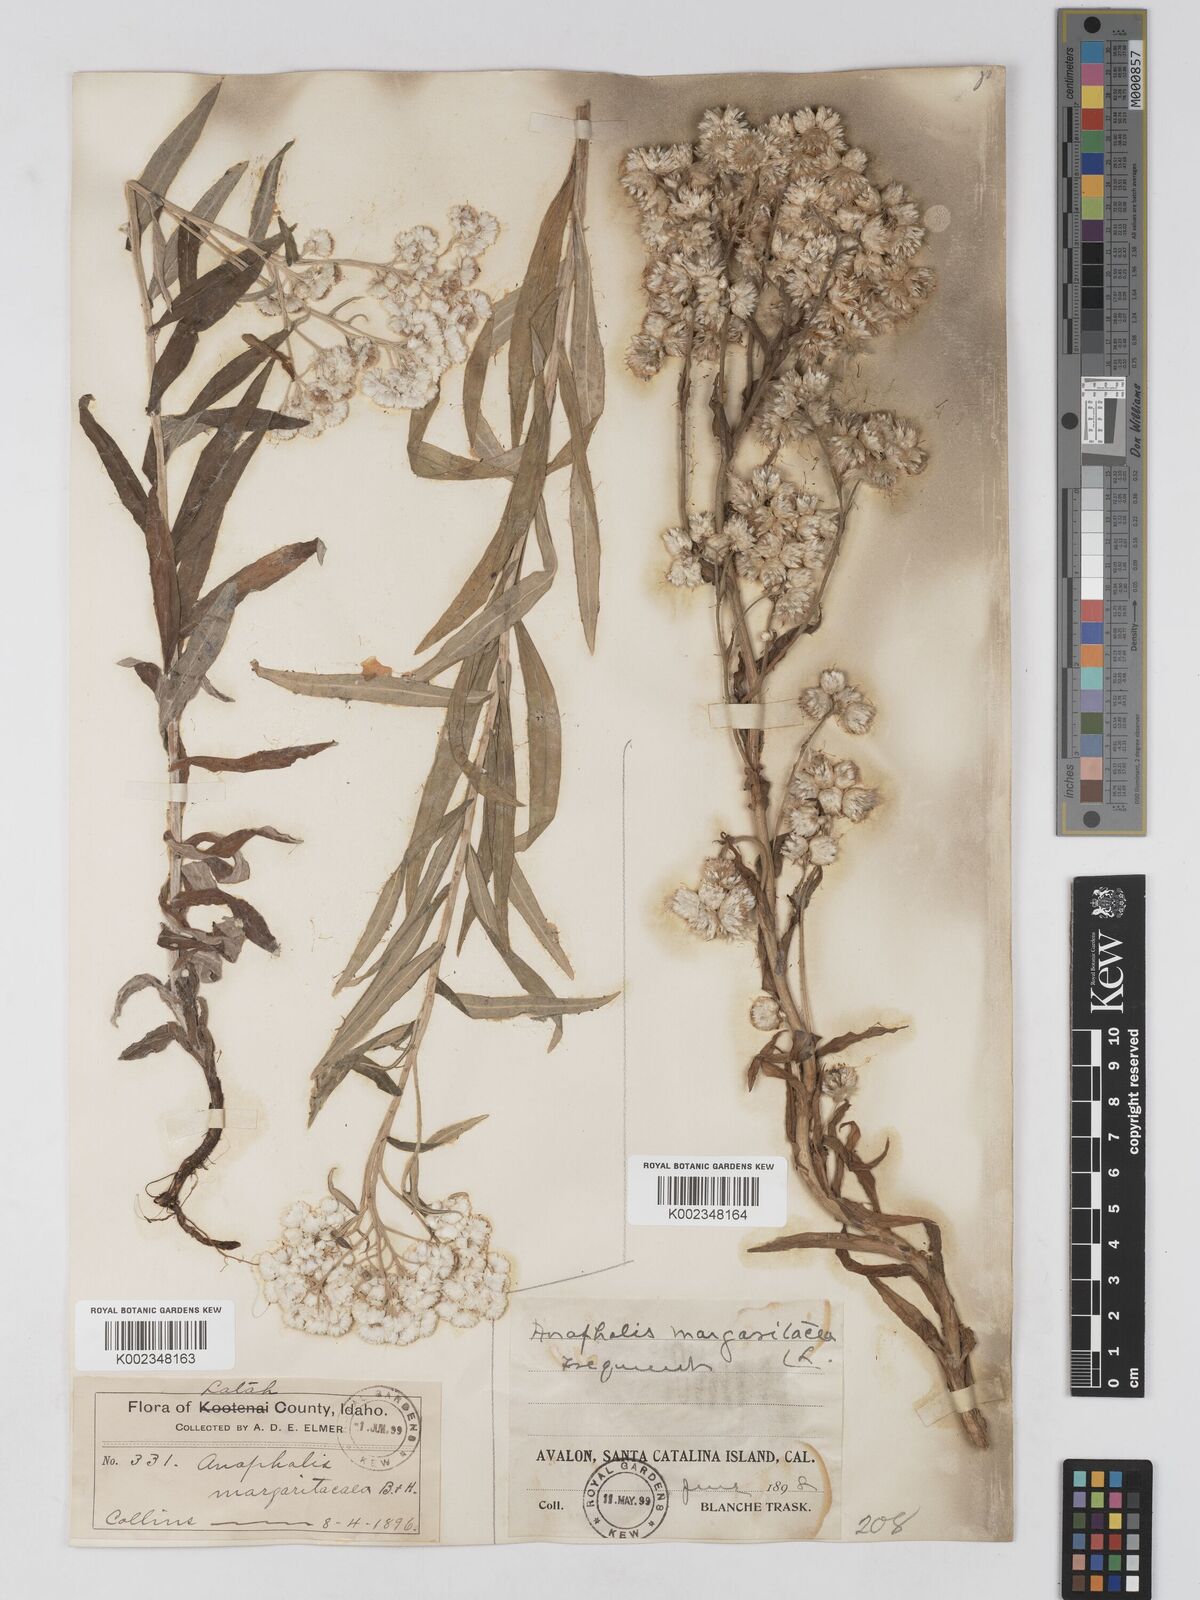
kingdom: Plantae
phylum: Tracheophyta
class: Magnoliopsida
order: Asterales
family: Asteraceae
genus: Anaphalis
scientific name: Anaphalis margaritacea
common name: Pearly everlasting
